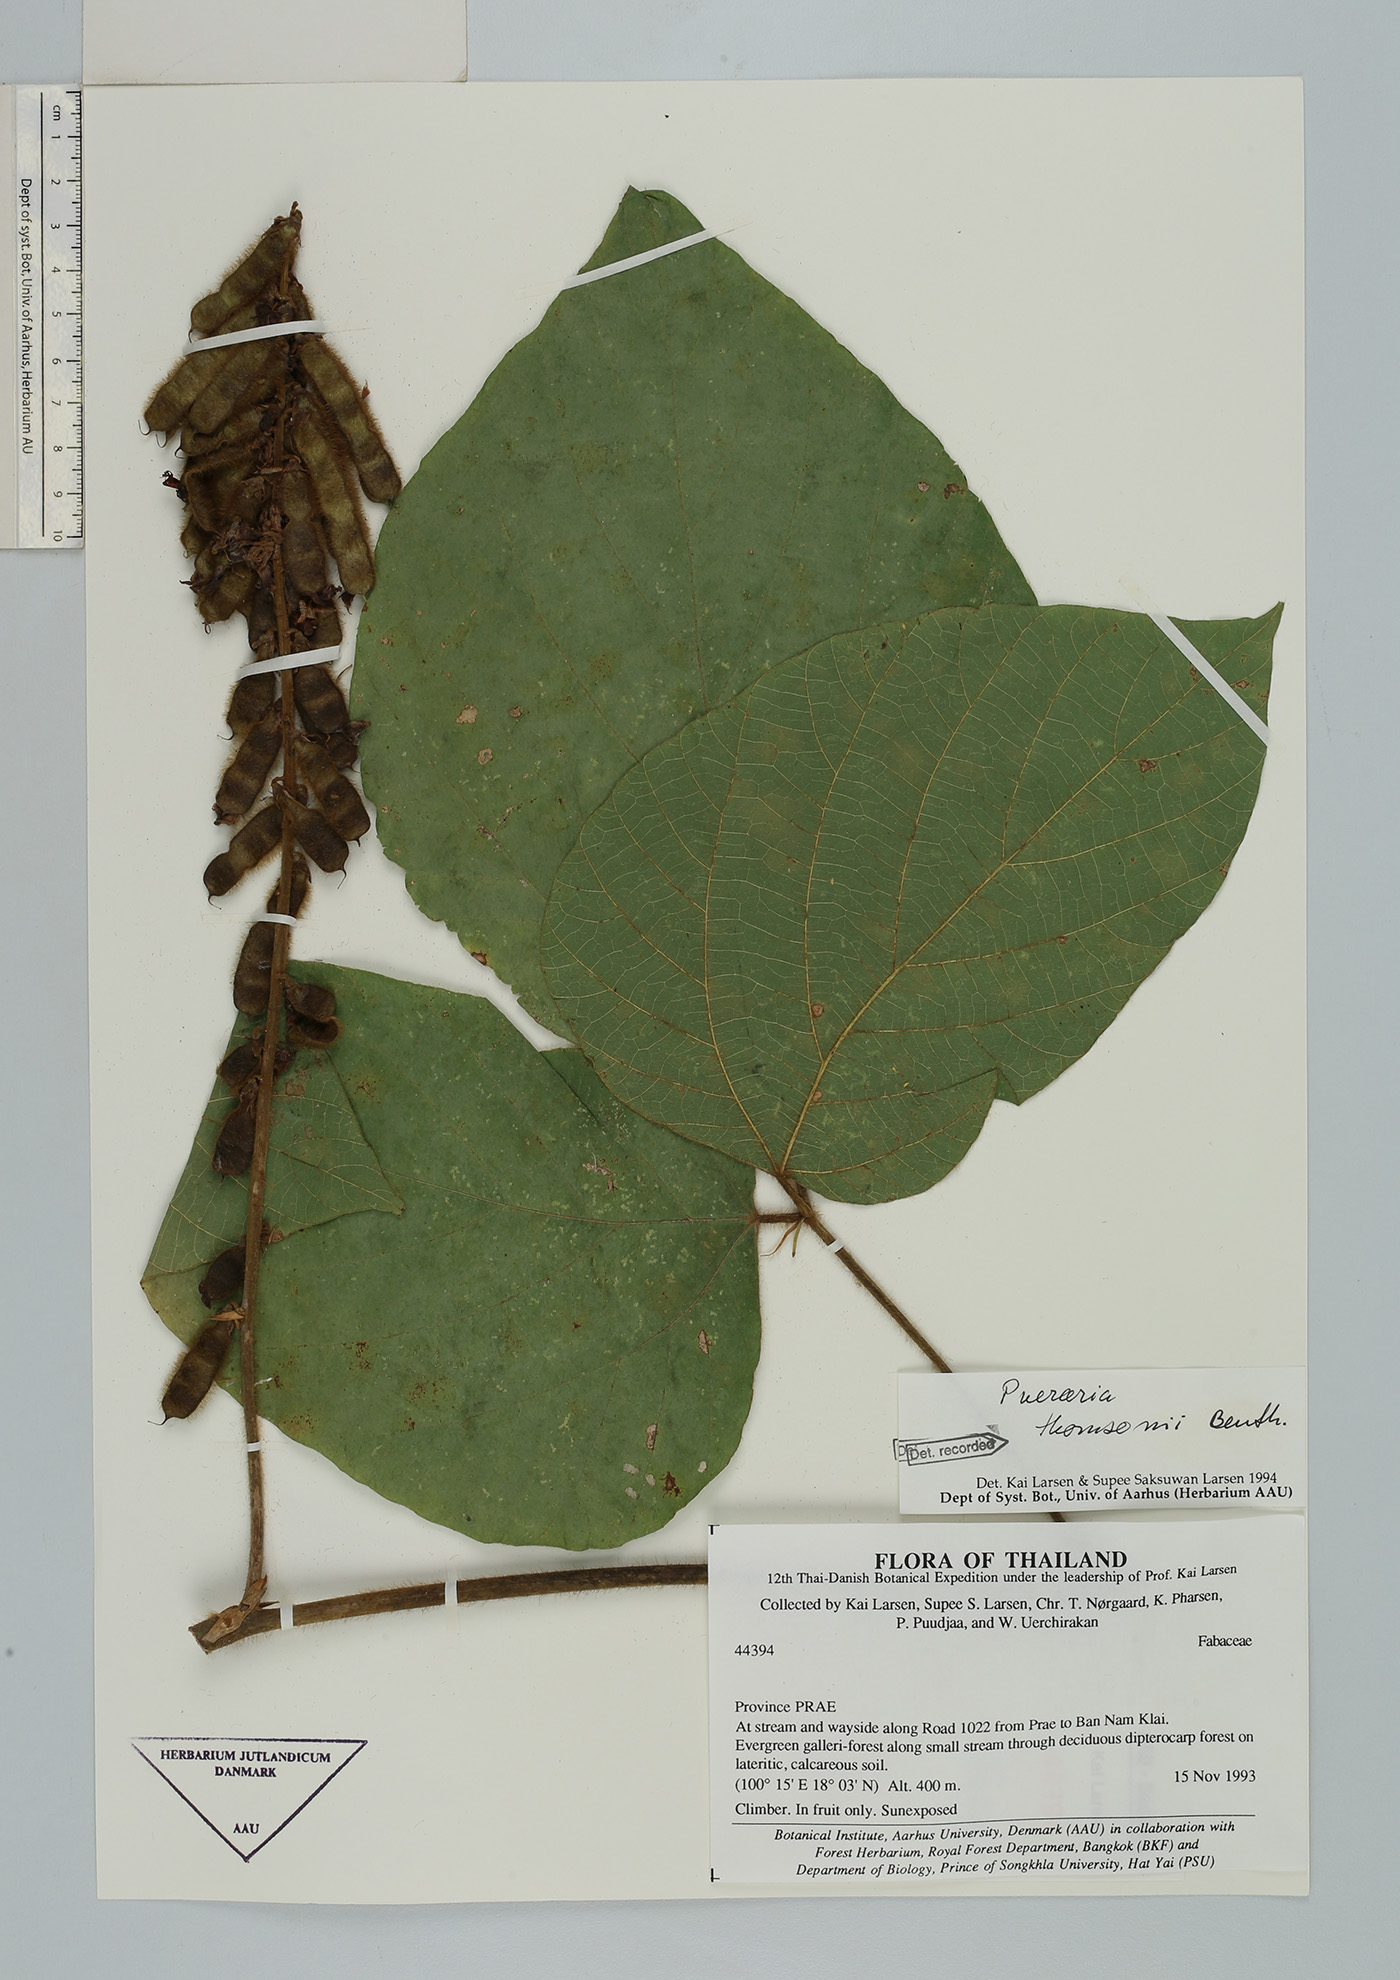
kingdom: Plantae
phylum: Tracheophyta
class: Magnoliopsida
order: Fabales
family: Fabaceae
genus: Pueraria
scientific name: Pueraria montana
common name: Kudzu
